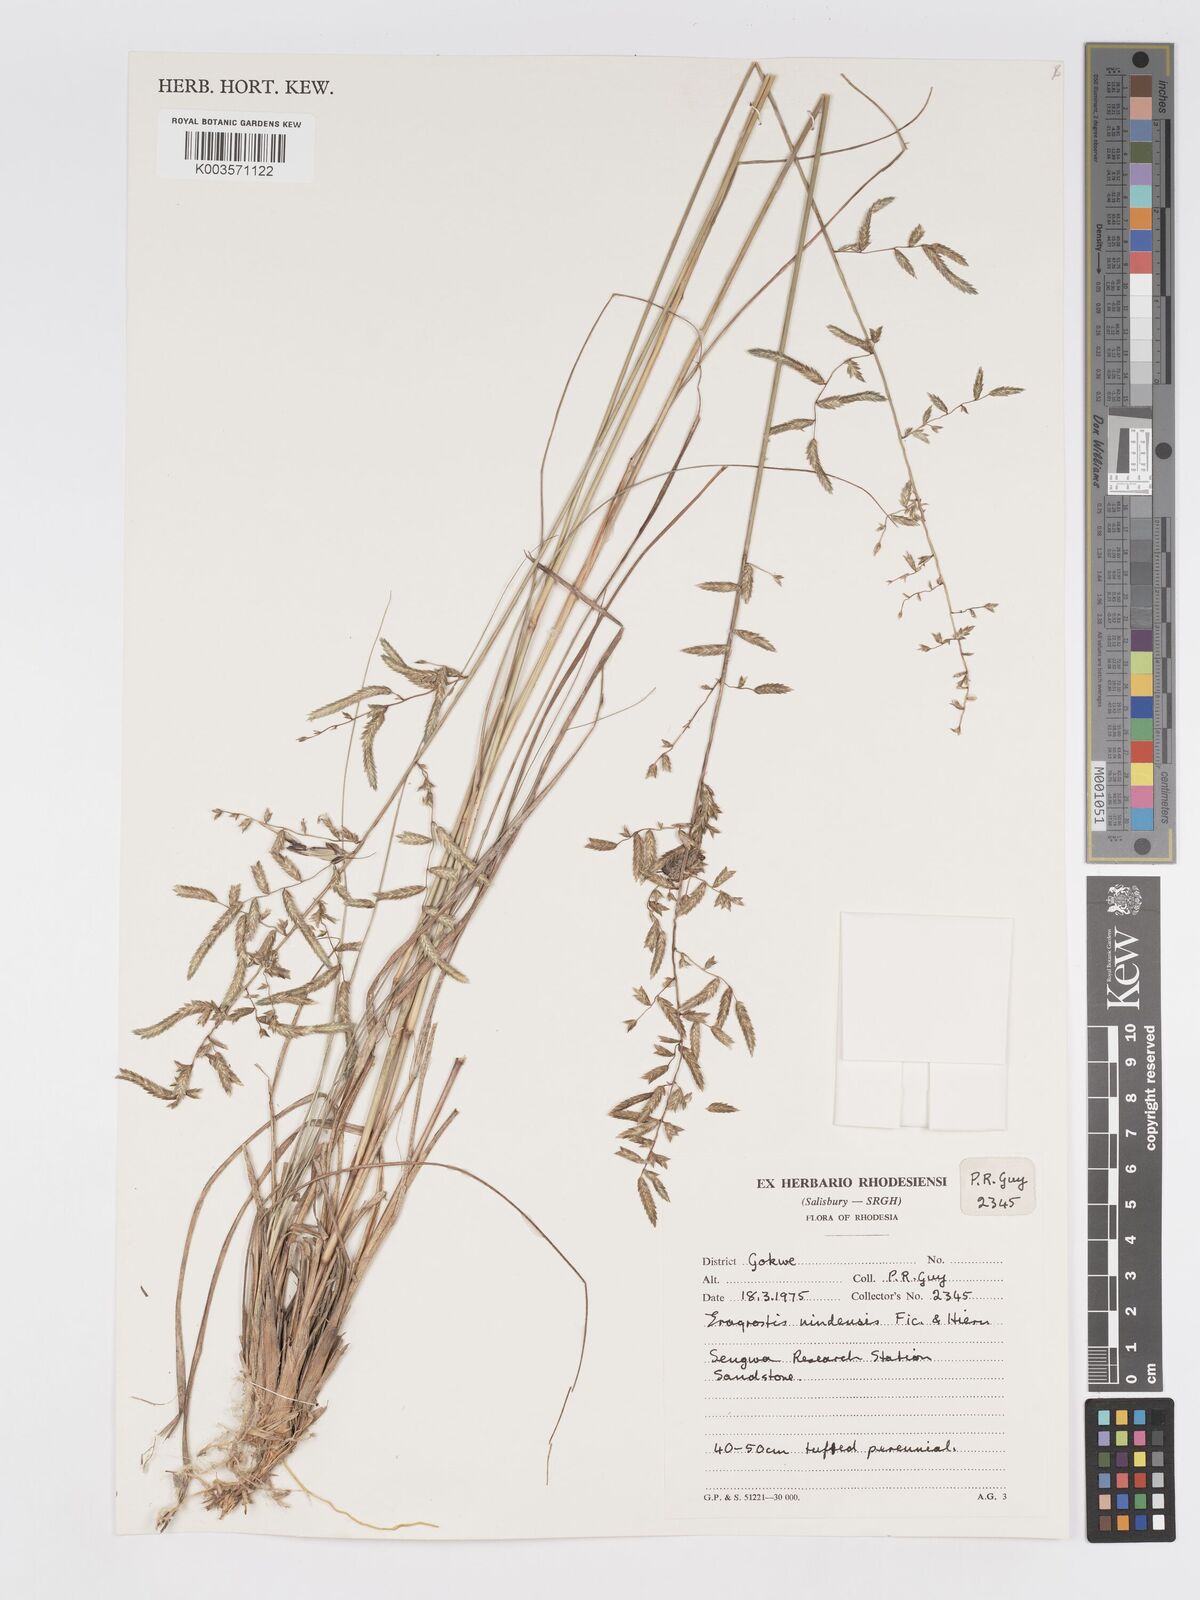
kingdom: Plantae
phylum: Tracheophyta
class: Liliopsida
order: Poales
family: Poaceae
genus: Eragrostis
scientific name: Eragrostis nindensis
